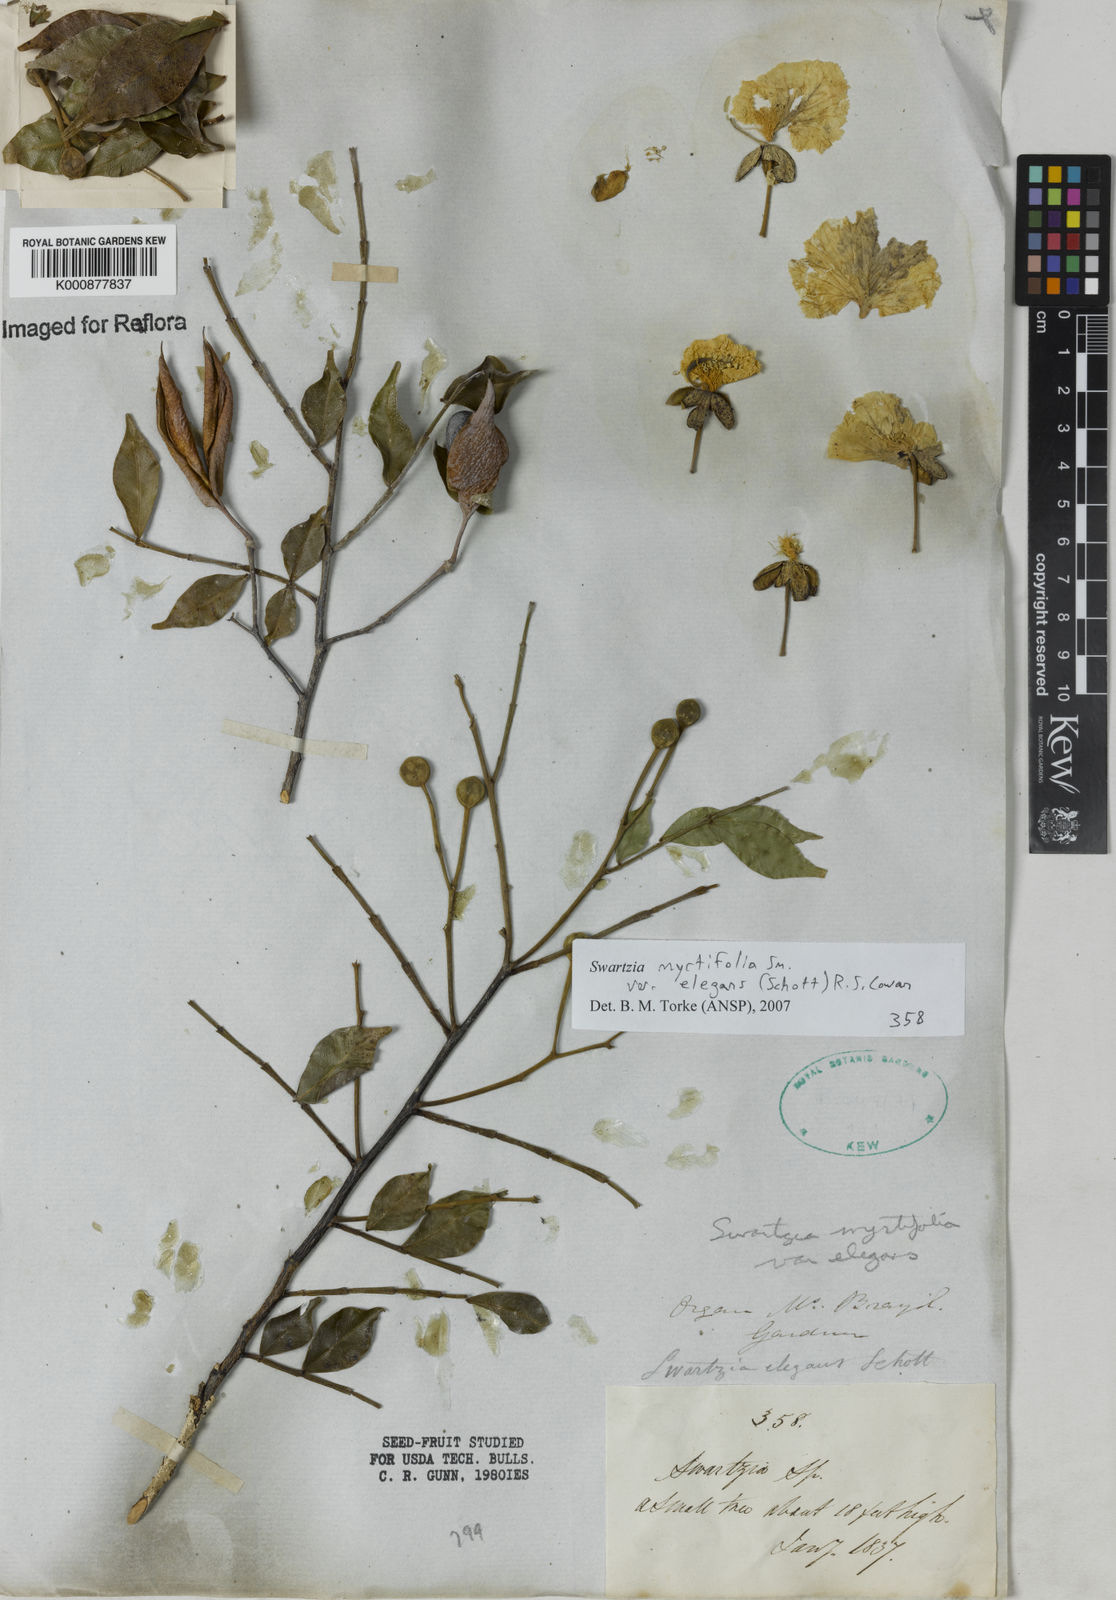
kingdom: Plantae
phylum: Tracheophyta
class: Magnoliopsida
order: Fabales
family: Fabaceae
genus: Swartzia
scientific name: Swartzia myrtifolia
